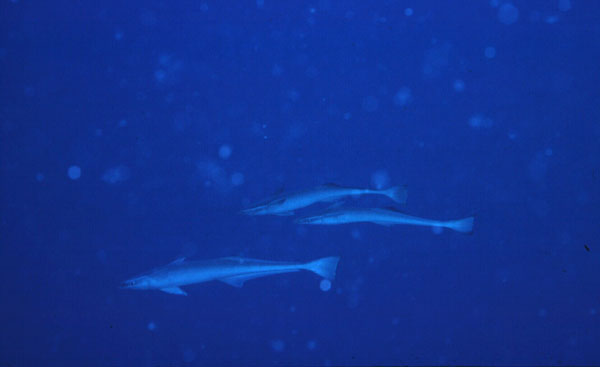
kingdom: Animalia
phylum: Chordata
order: Perciformes
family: Echeneidae
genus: Echeneis
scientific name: Echeneis naucrates
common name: Sharksucker
